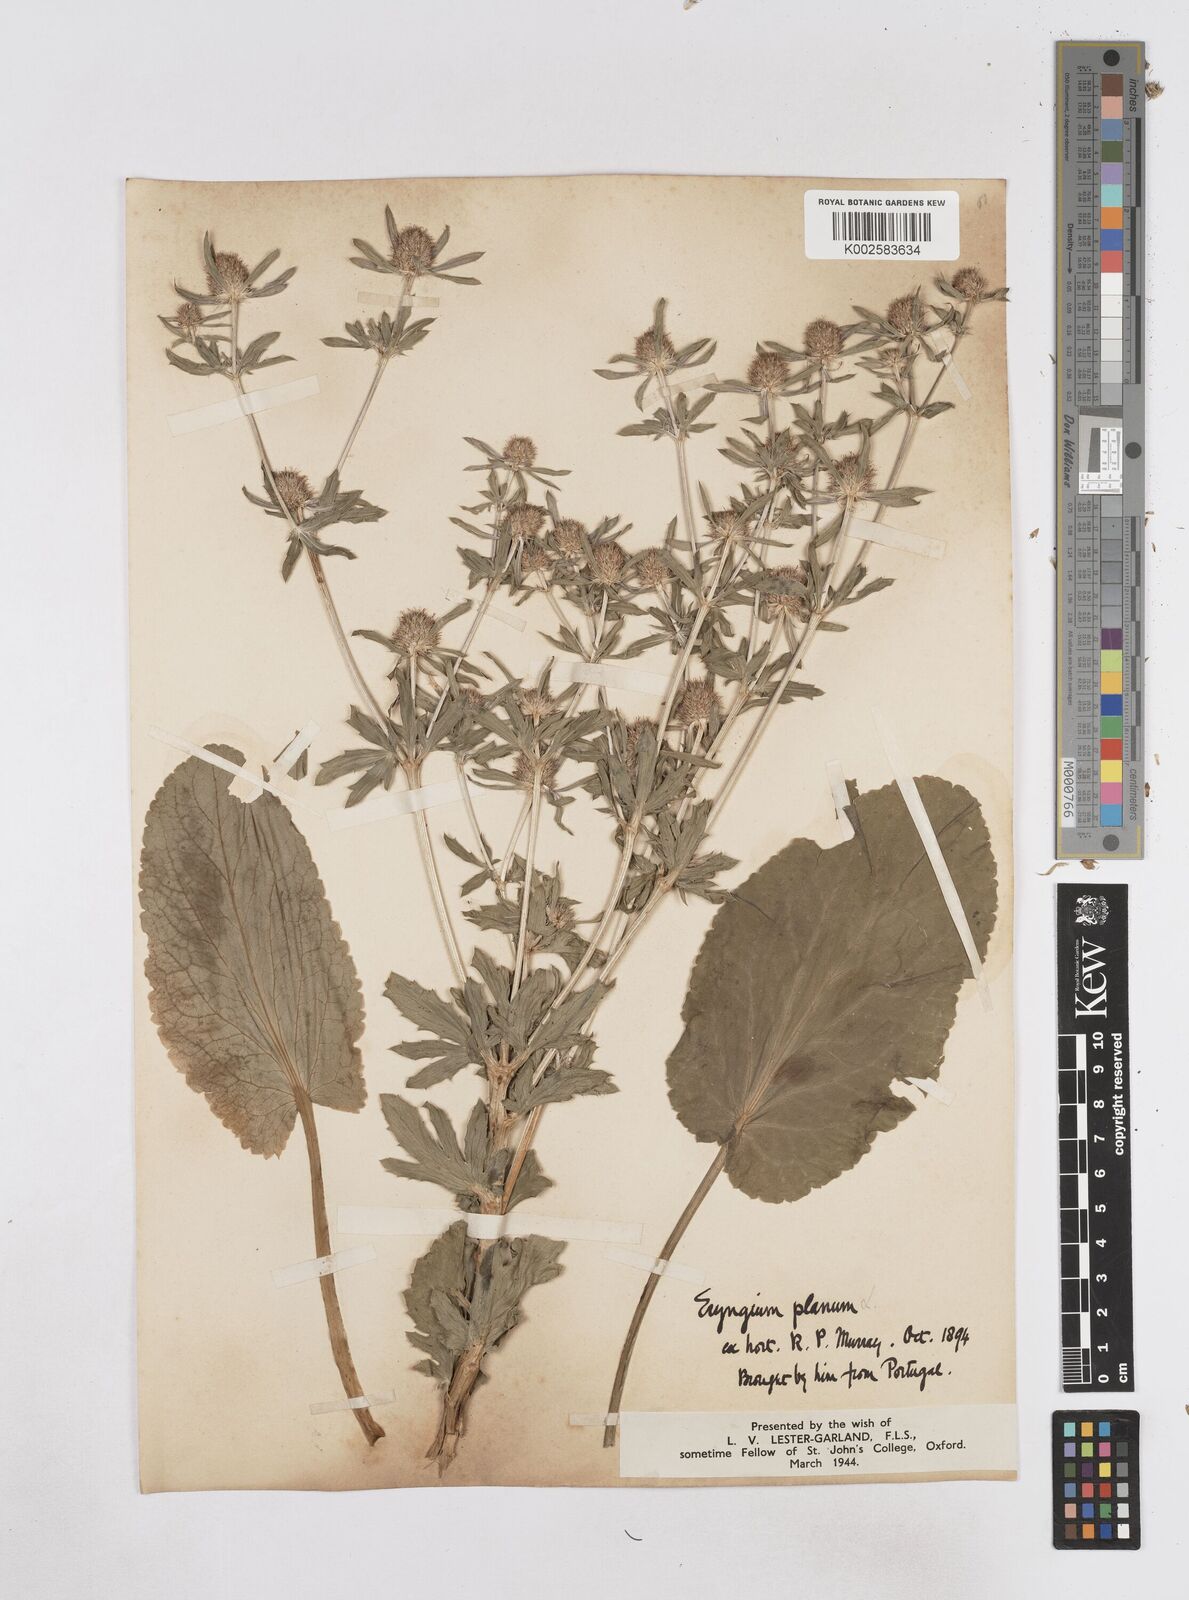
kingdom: Plantae
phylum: Tracheophyta
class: Magnoliopsida
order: Apiales
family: Apiaceae
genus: Eryngium
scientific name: Eryngium planum
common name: Blue eryngo
